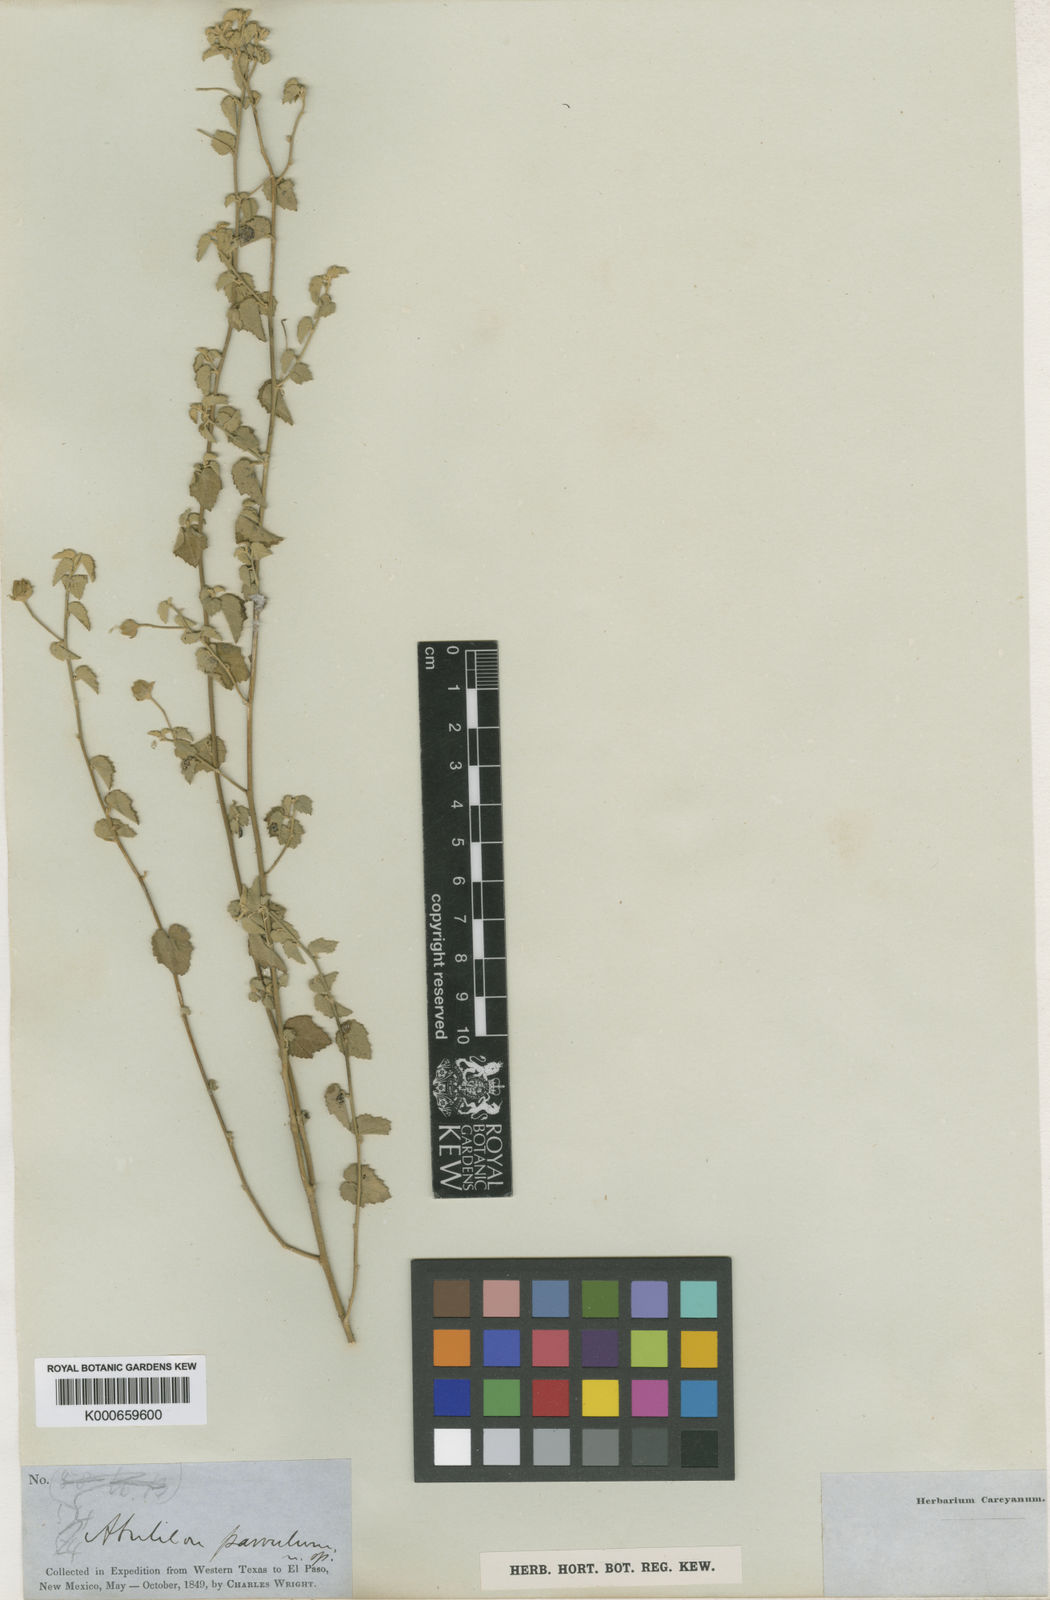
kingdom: Plantae
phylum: Tracheophyta
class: Magnoliopsida
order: Malvales
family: Malvaceae
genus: Abutilon
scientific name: Abutilon parvulum
